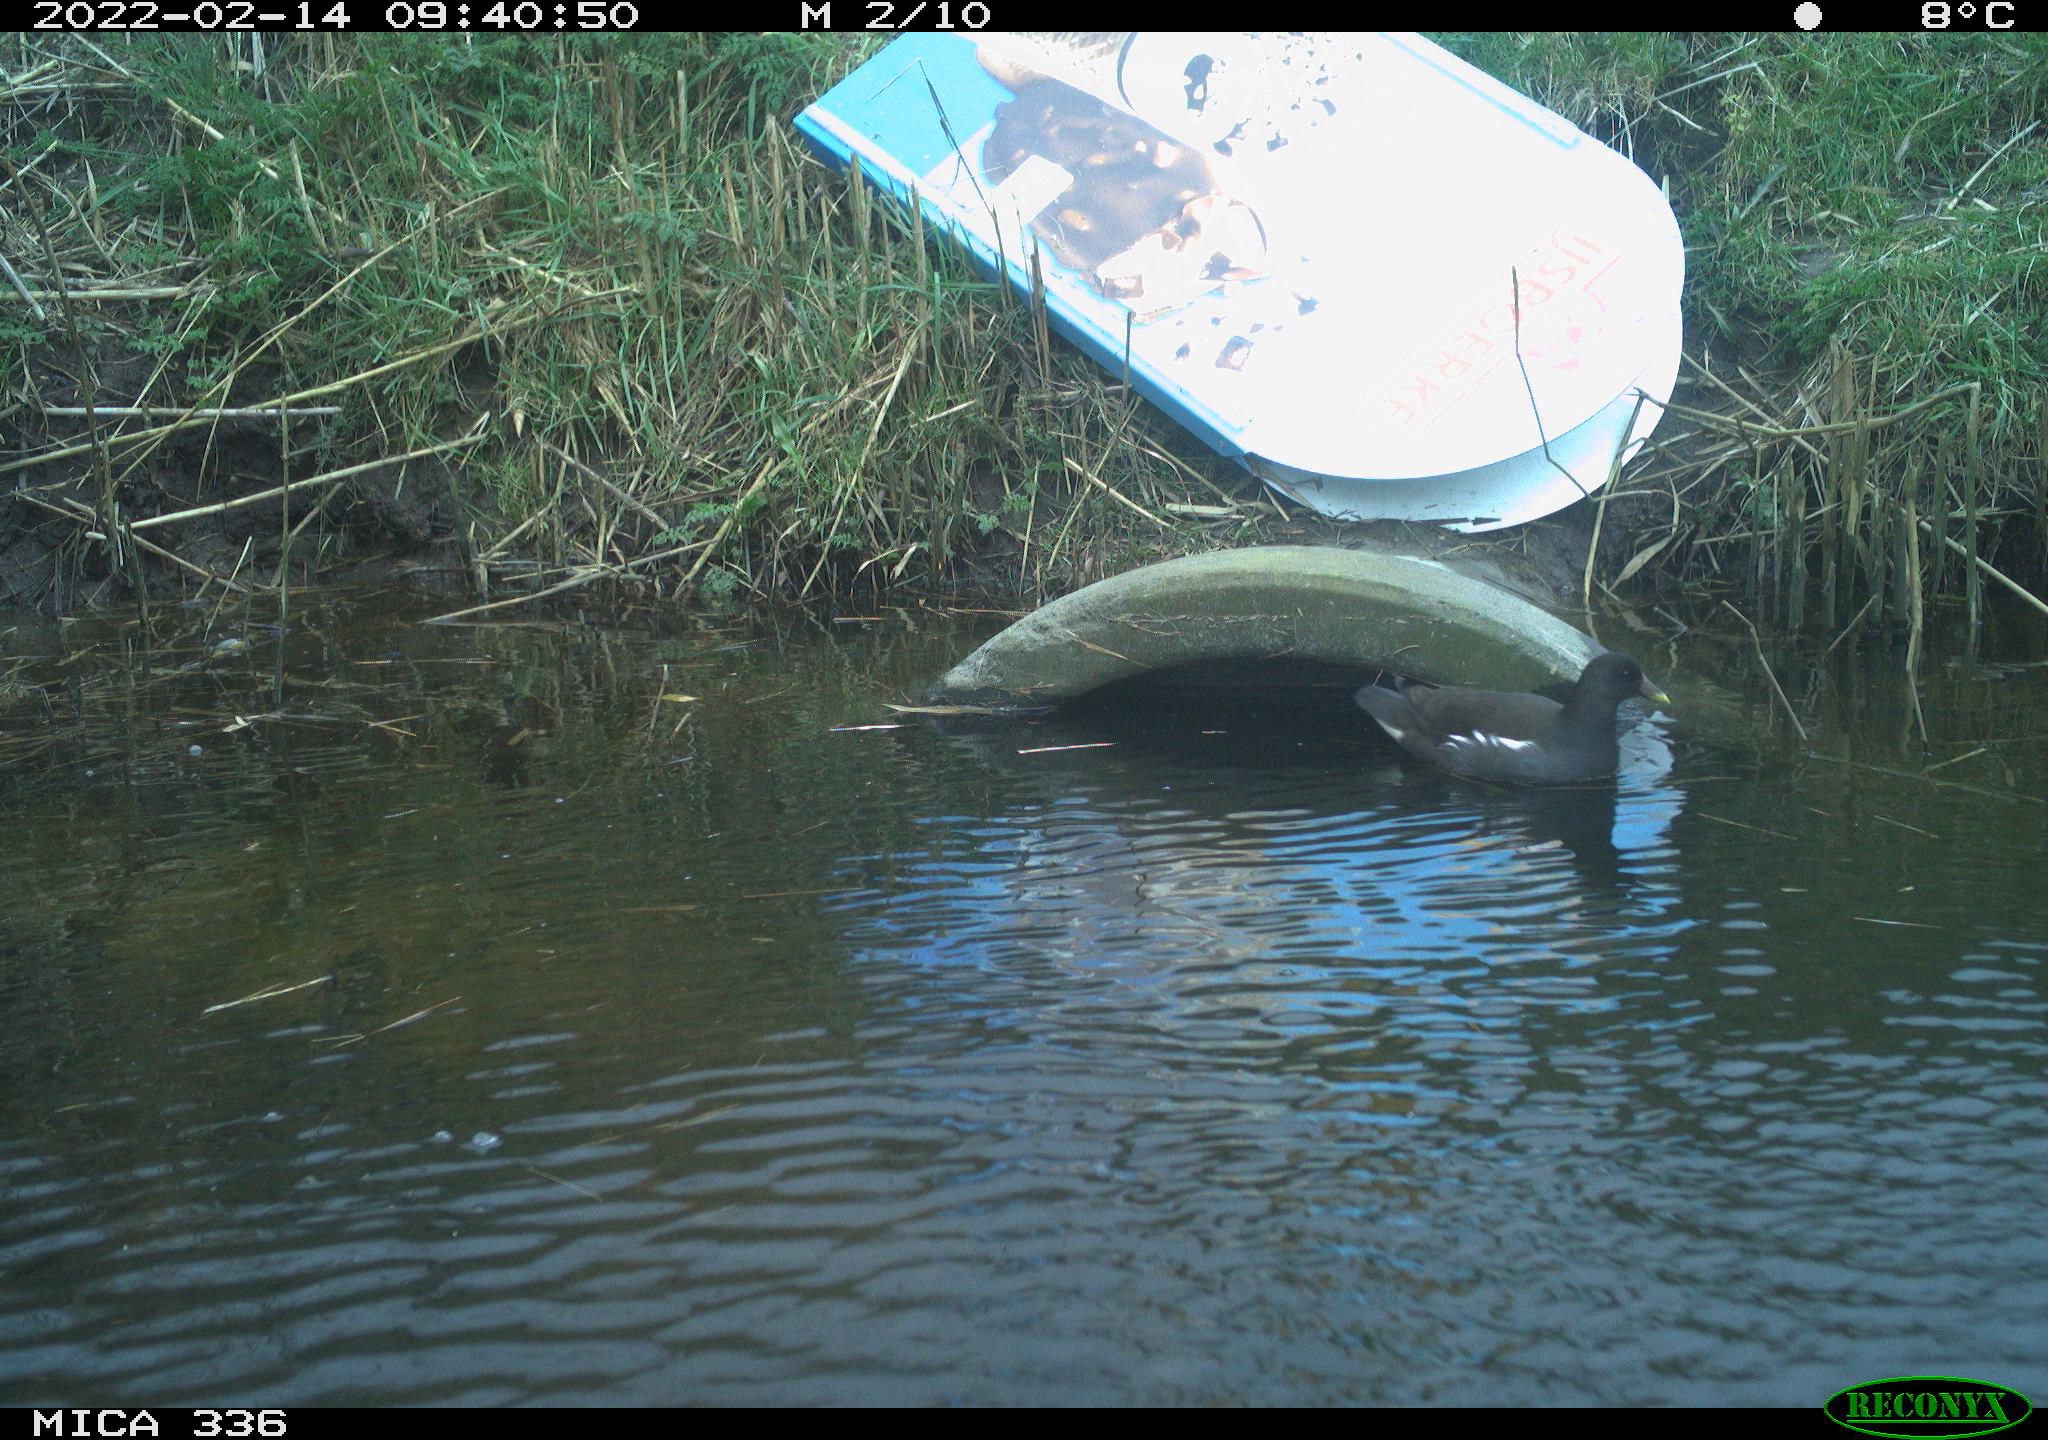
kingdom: Animalia
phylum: Chordata
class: Aves
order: Gruiformes
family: Rallidae
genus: Gallinula
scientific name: Gallinula chloropus
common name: Common moorhen
